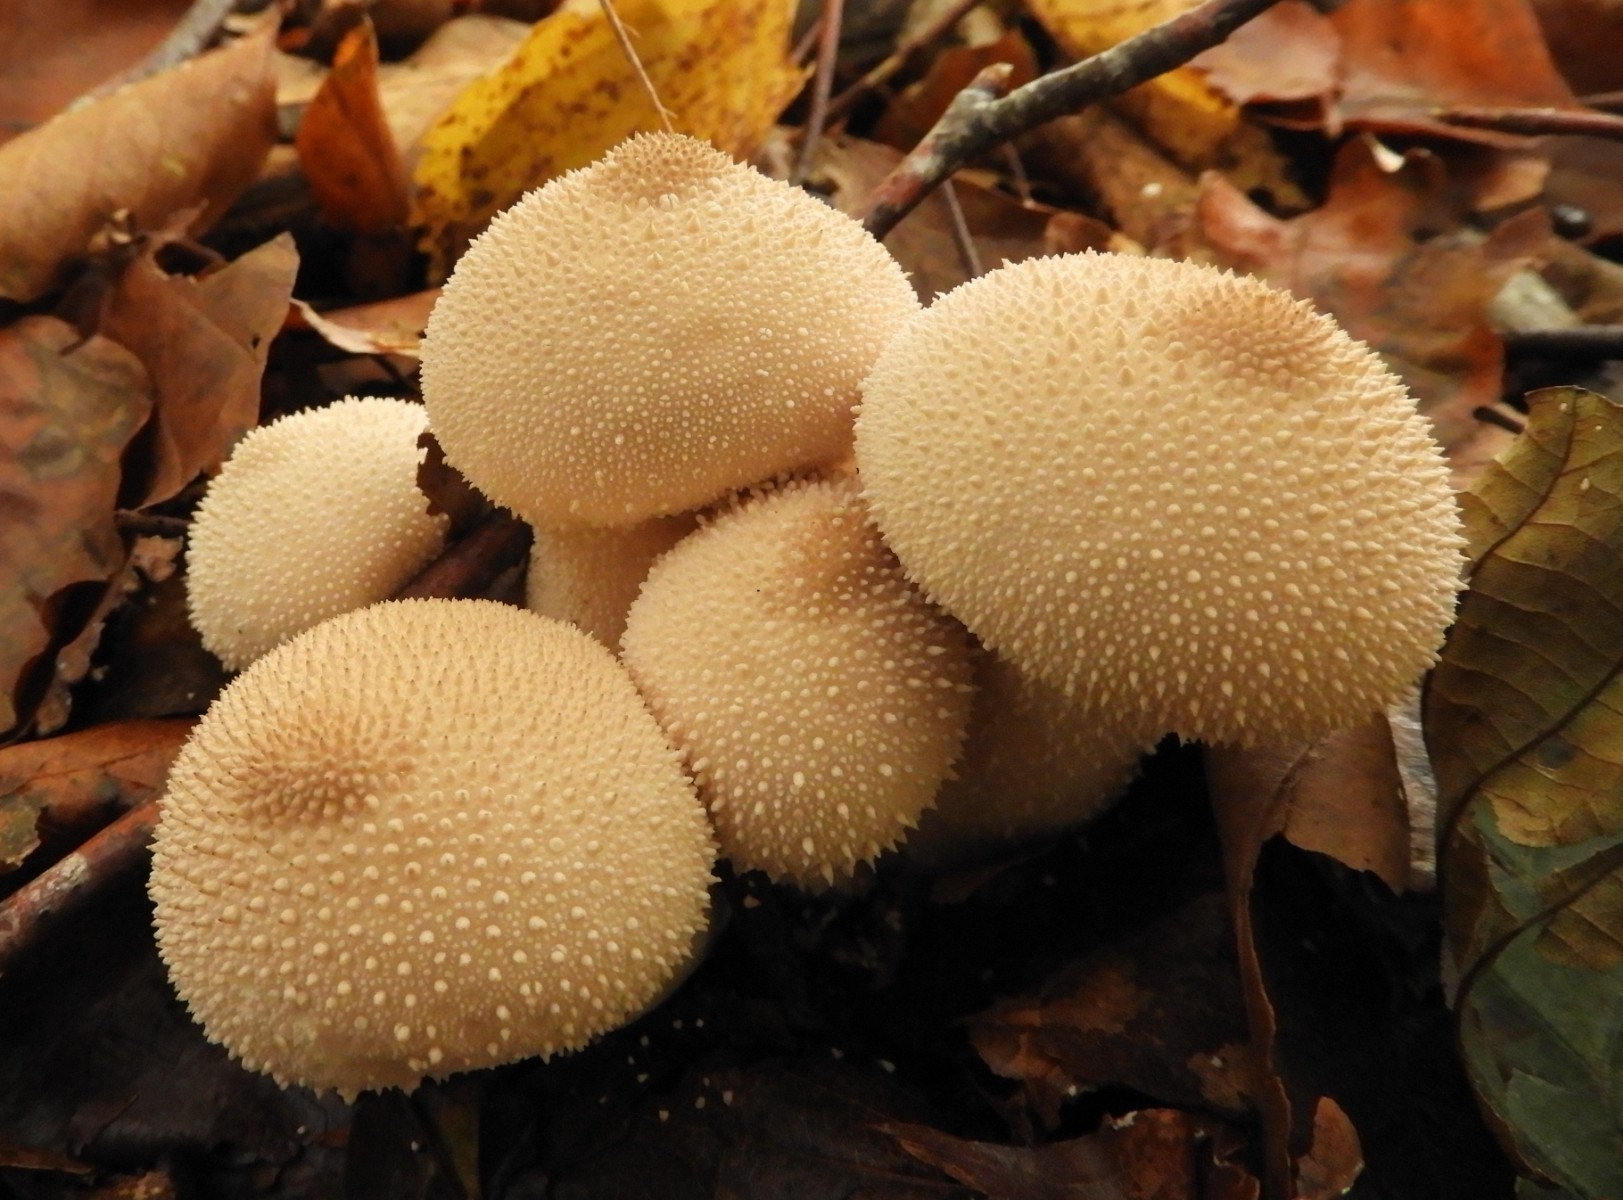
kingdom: Fungi
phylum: Basidiomycota
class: Agaricomycetes
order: Agaricales
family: Lycoperdaceae
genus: Lycoperdon
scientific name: Lycoperdon perlatum
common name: krystal-støvbold
